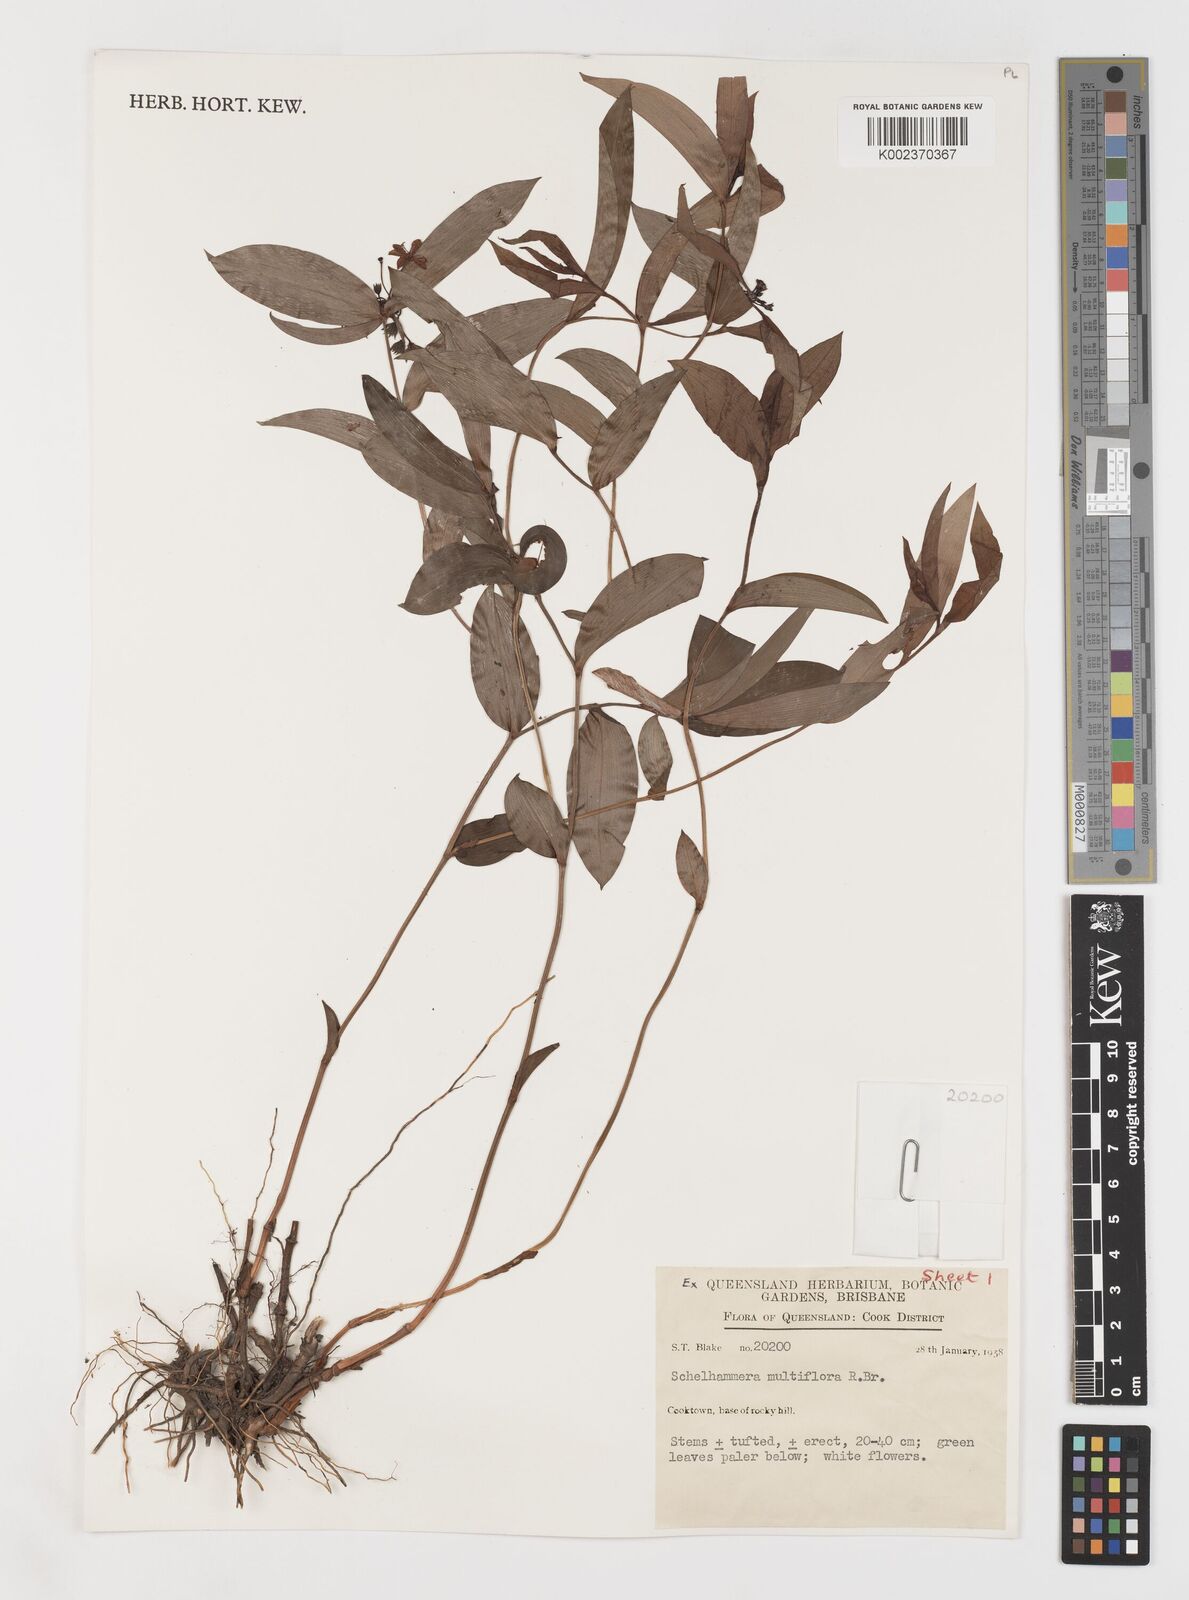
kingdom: Plantae
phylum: Tracheophyta
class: Liliopsida
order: Liliales
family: Colchicaceae
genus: Schelhammera
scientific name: Schelhammera multiflora
